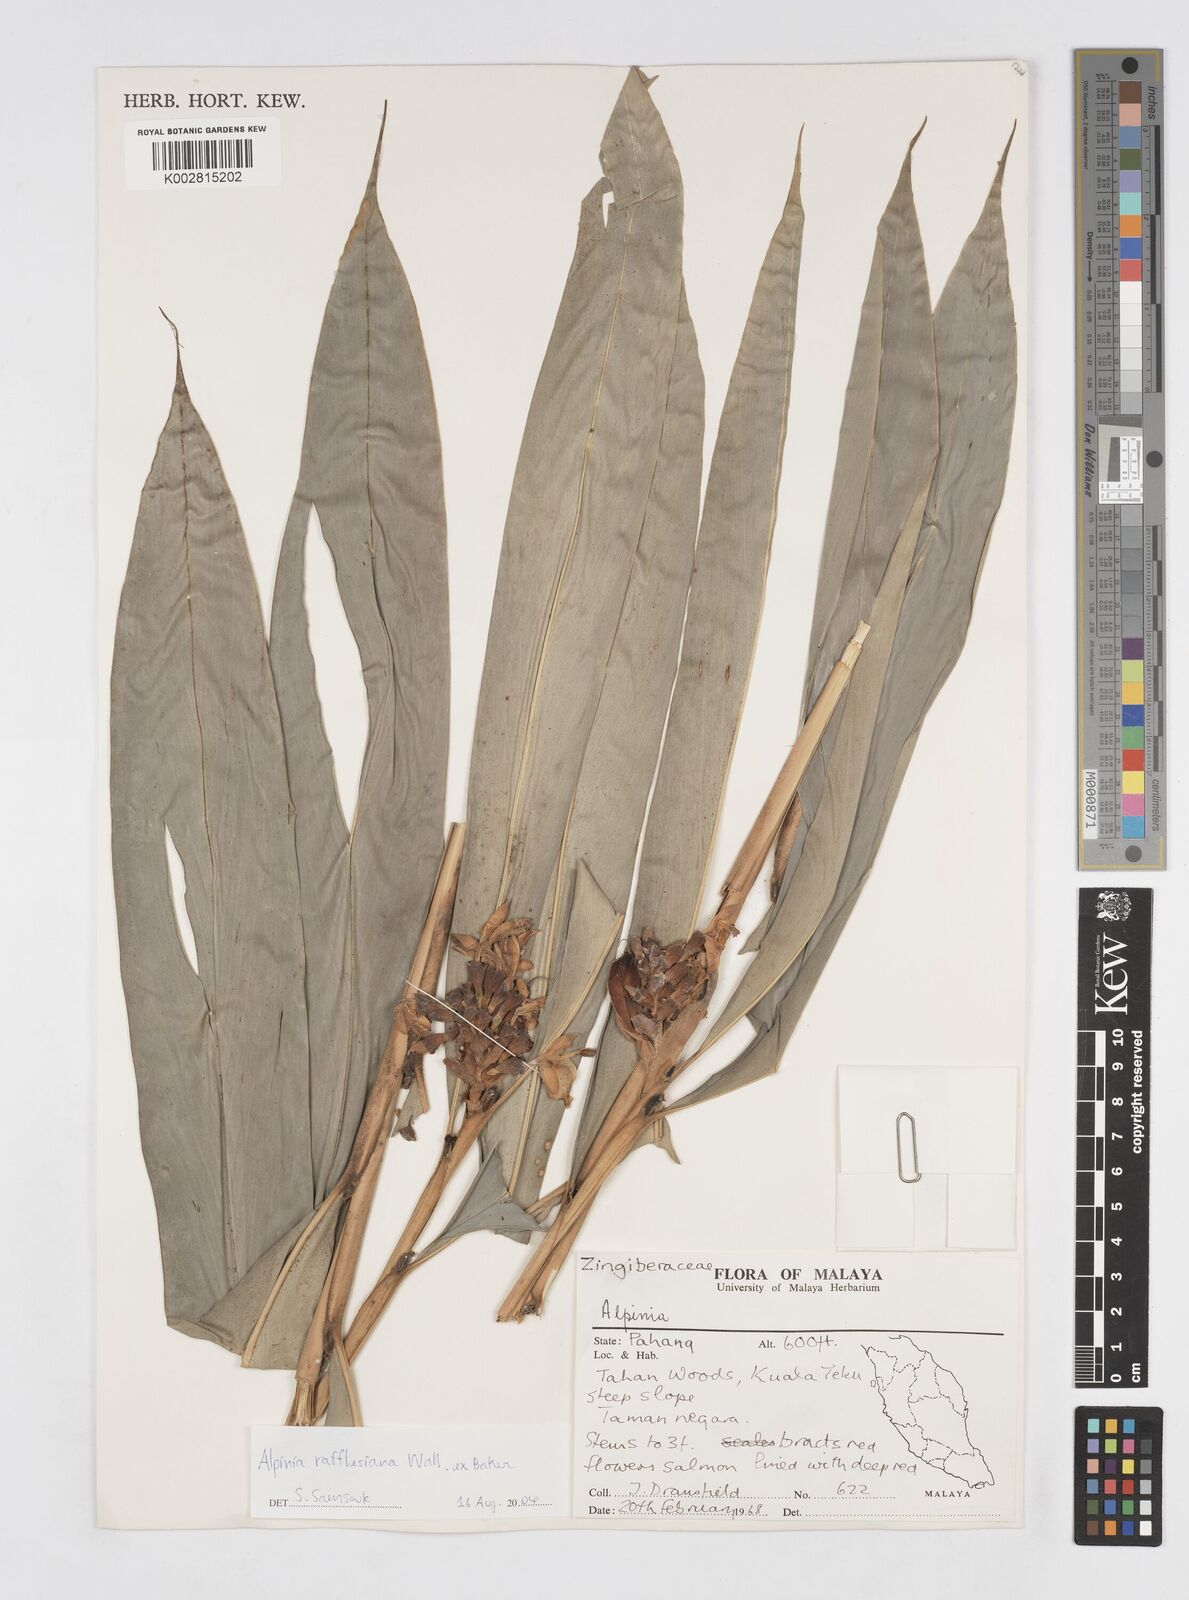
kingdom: Plantae
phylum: Tracheophyta
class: Liliopsida
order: Zingiberales
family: Zingiberaceae
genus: Alpinia
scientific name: Alpinia rafflesiana
